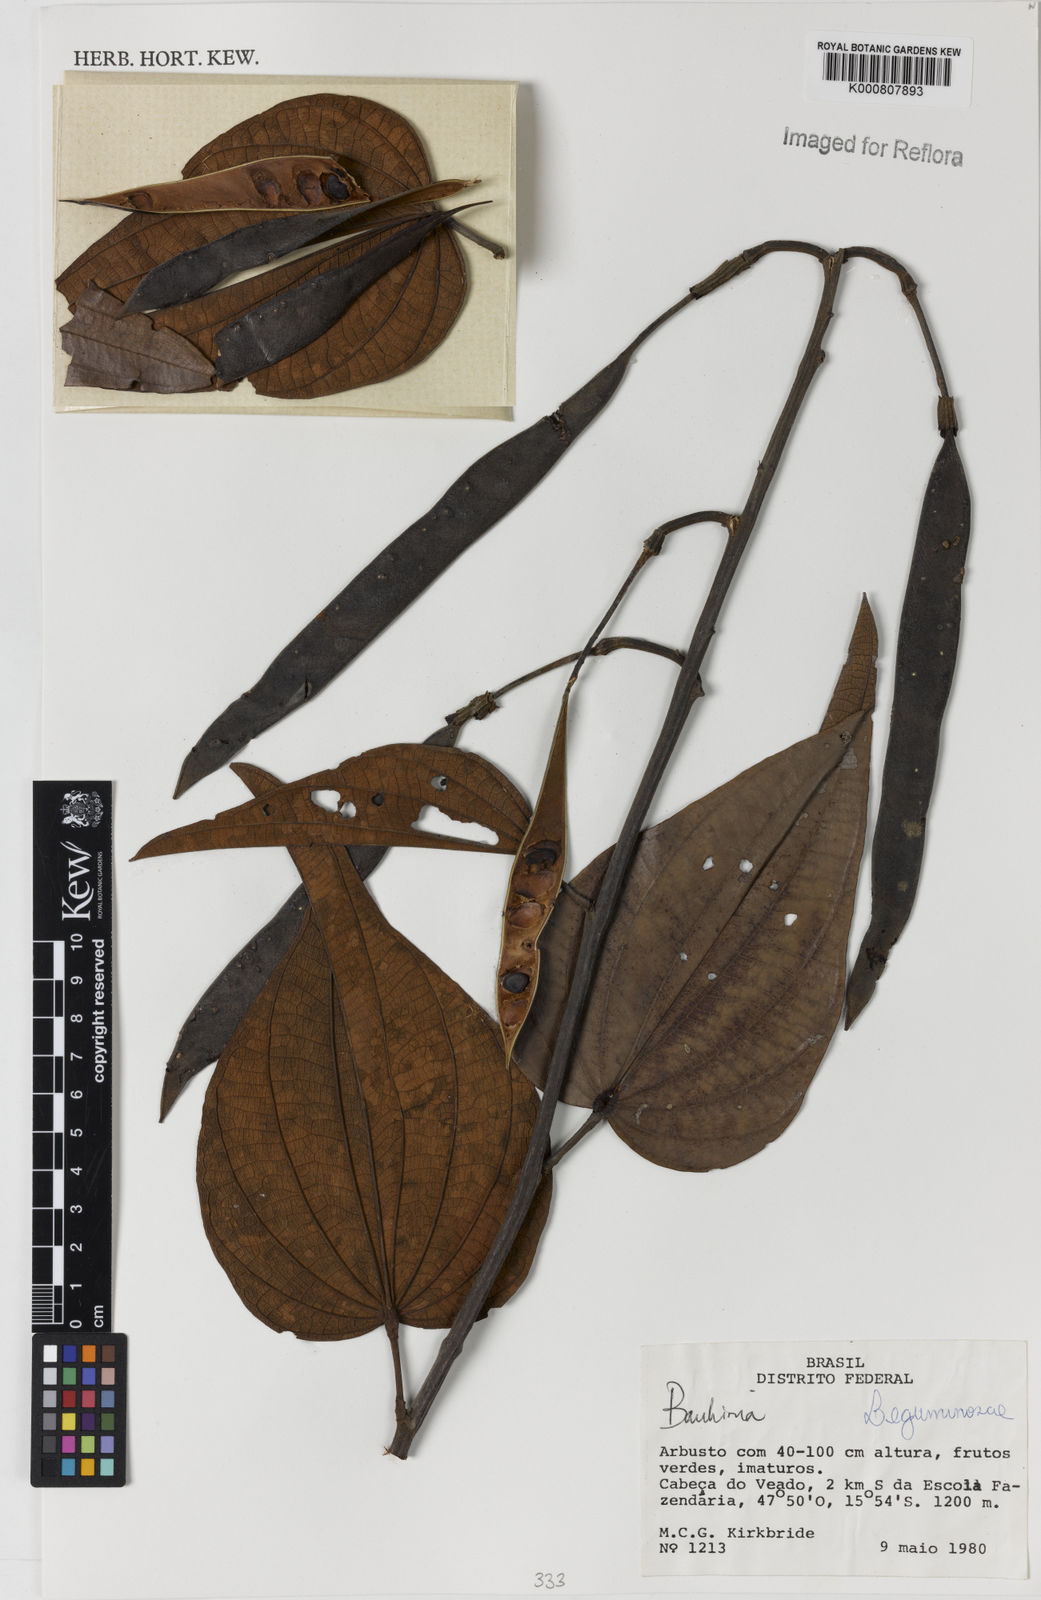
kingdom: Plantae
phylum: Tracheophyta
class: Magnoliopsida
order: Fabales
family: Fabaceae
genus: Bauhinia
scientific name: Bauhinia
